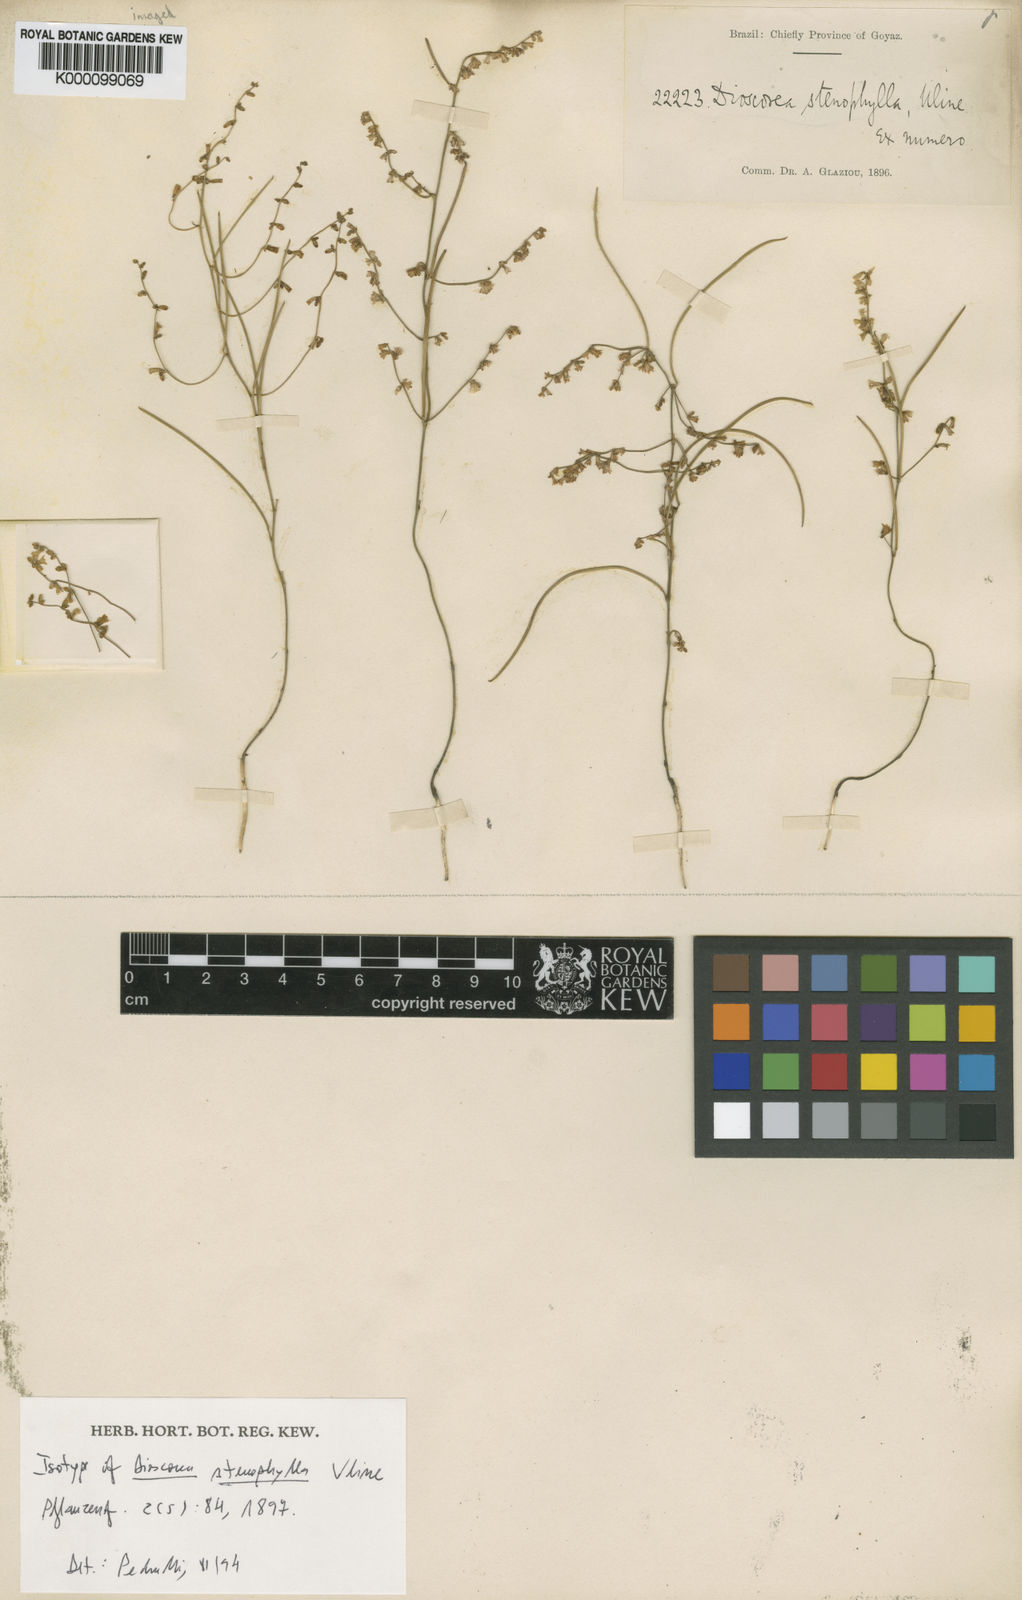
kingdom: Plantae
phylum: Tracheophyta
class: Liliopsida
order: Dioscoreales
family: Dioscoreaceae
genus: Dioscorea
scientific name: Dioscorea stenophylla
